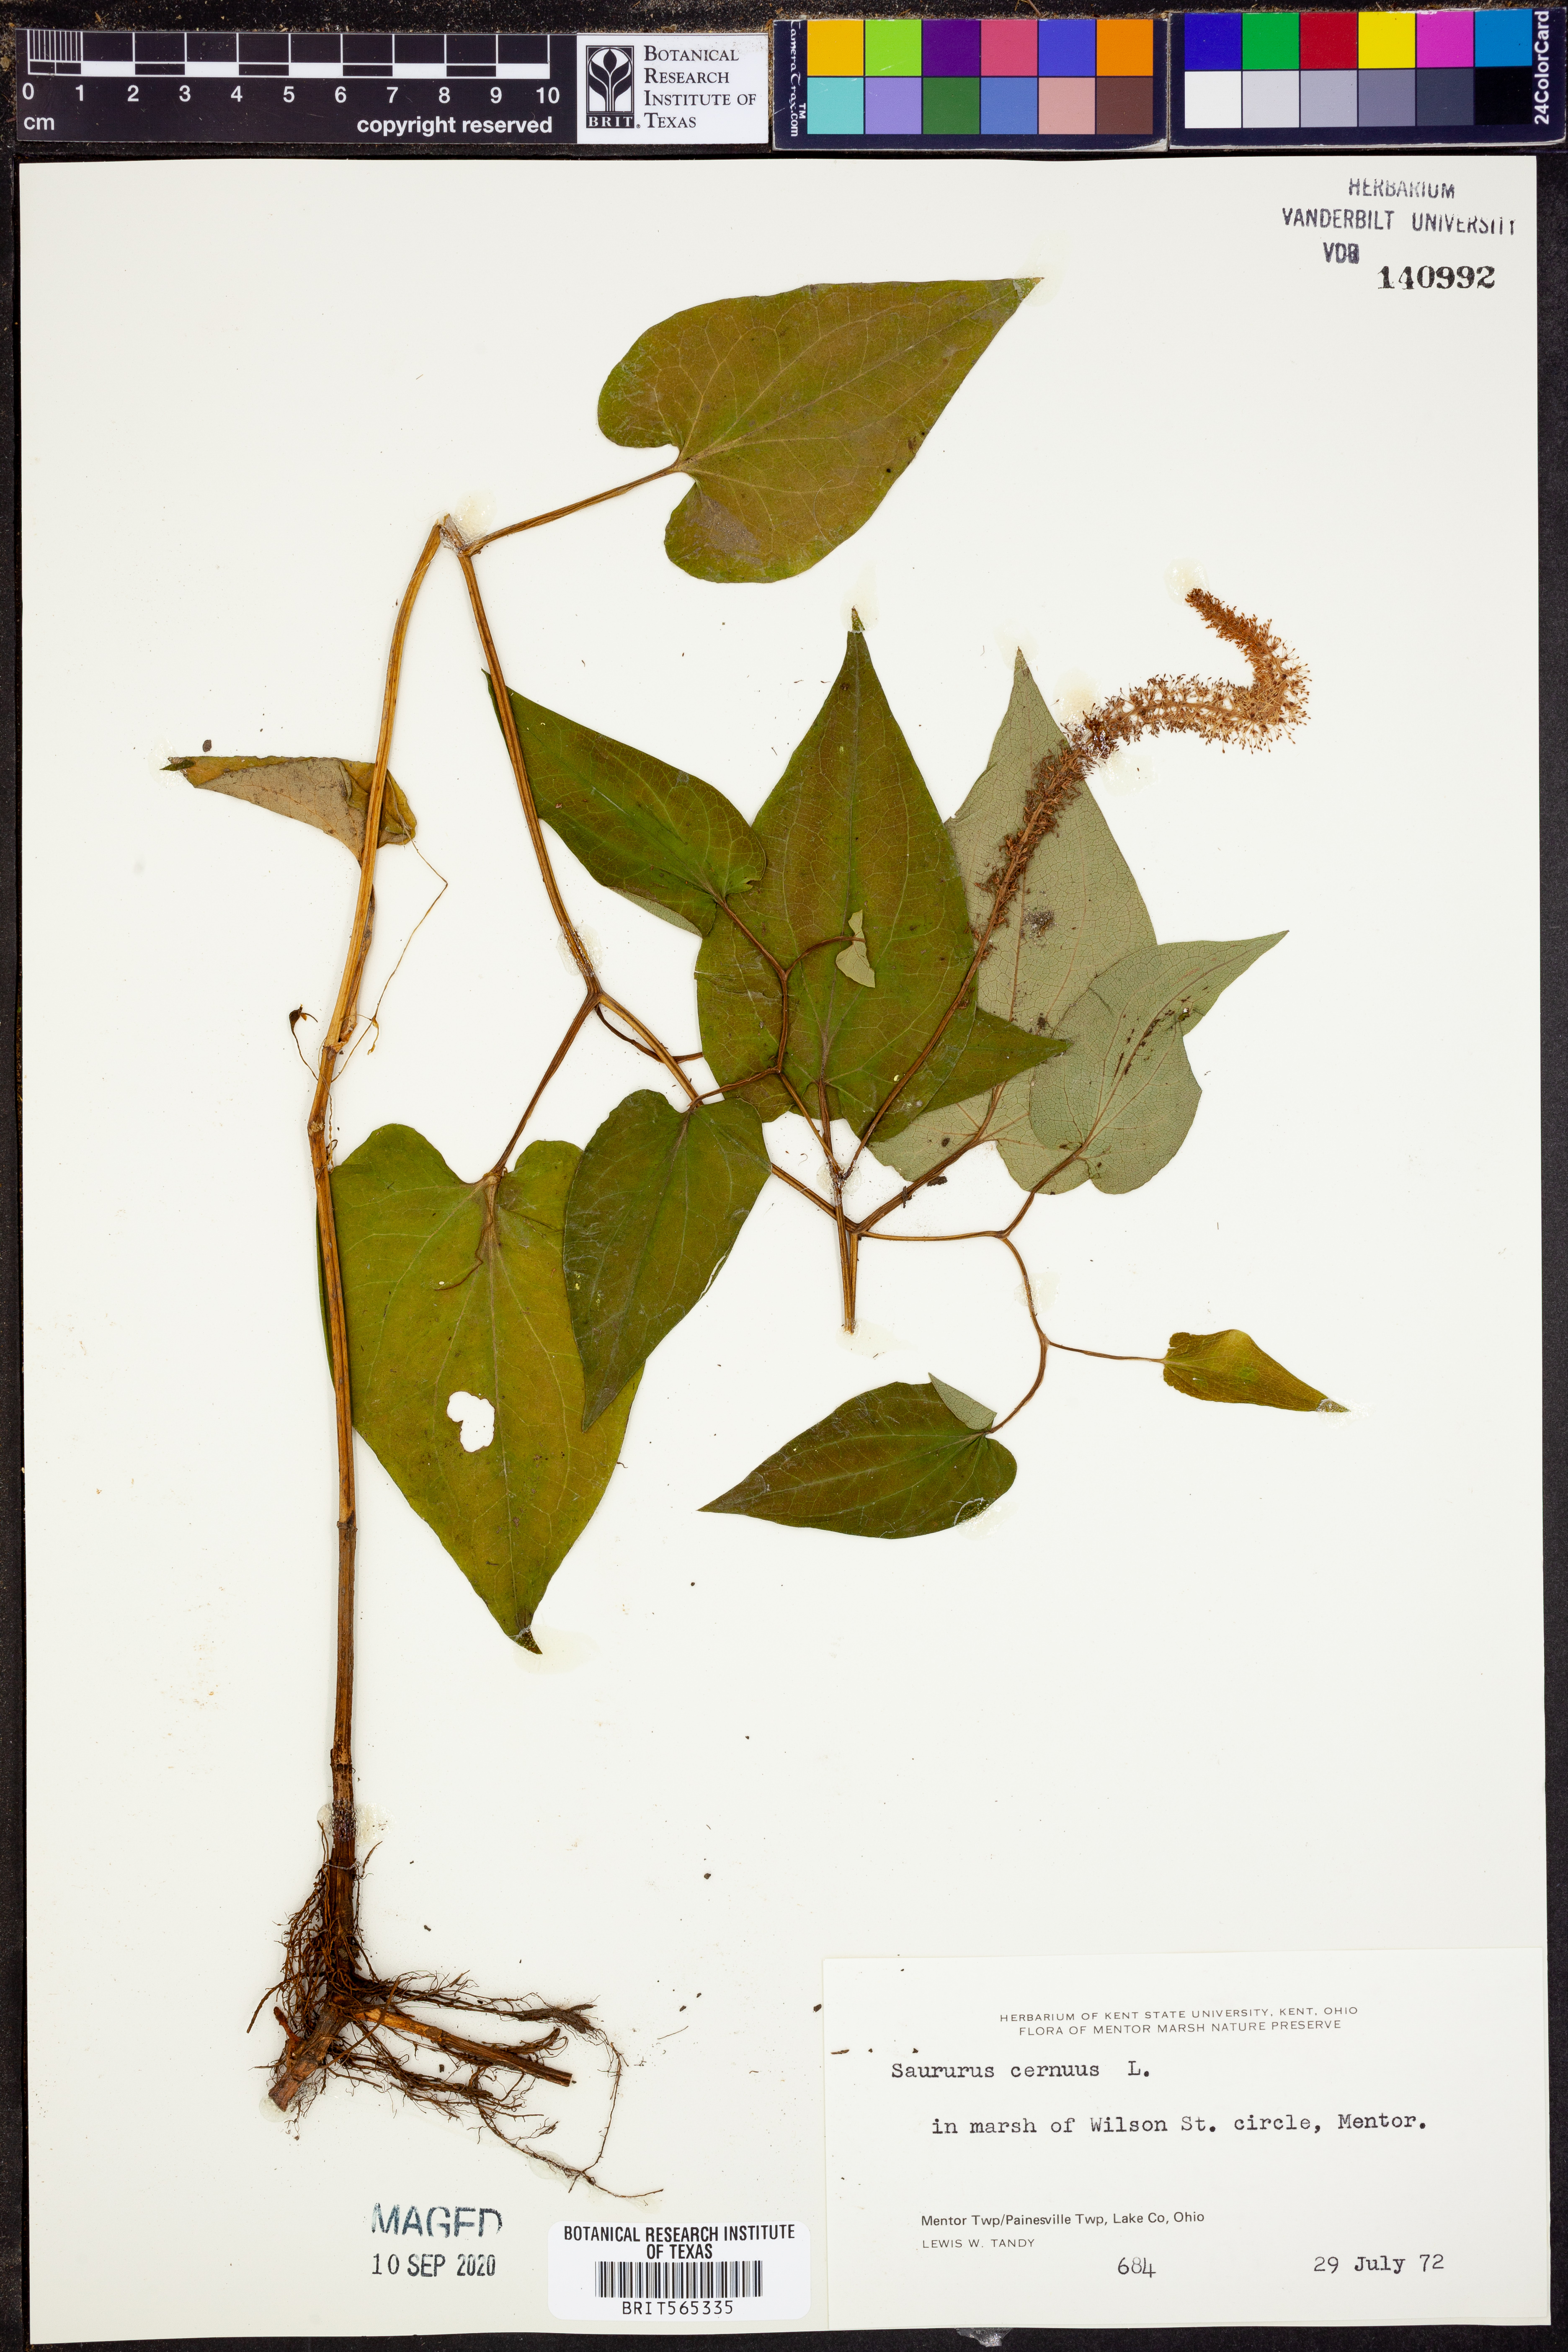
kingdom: Plantae
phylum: Tracheophyta
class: Magnoliopsida
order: Piperales
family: Saururaceae
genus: Saururus
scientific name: Saururus cernuus
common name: Lizard's-tail
